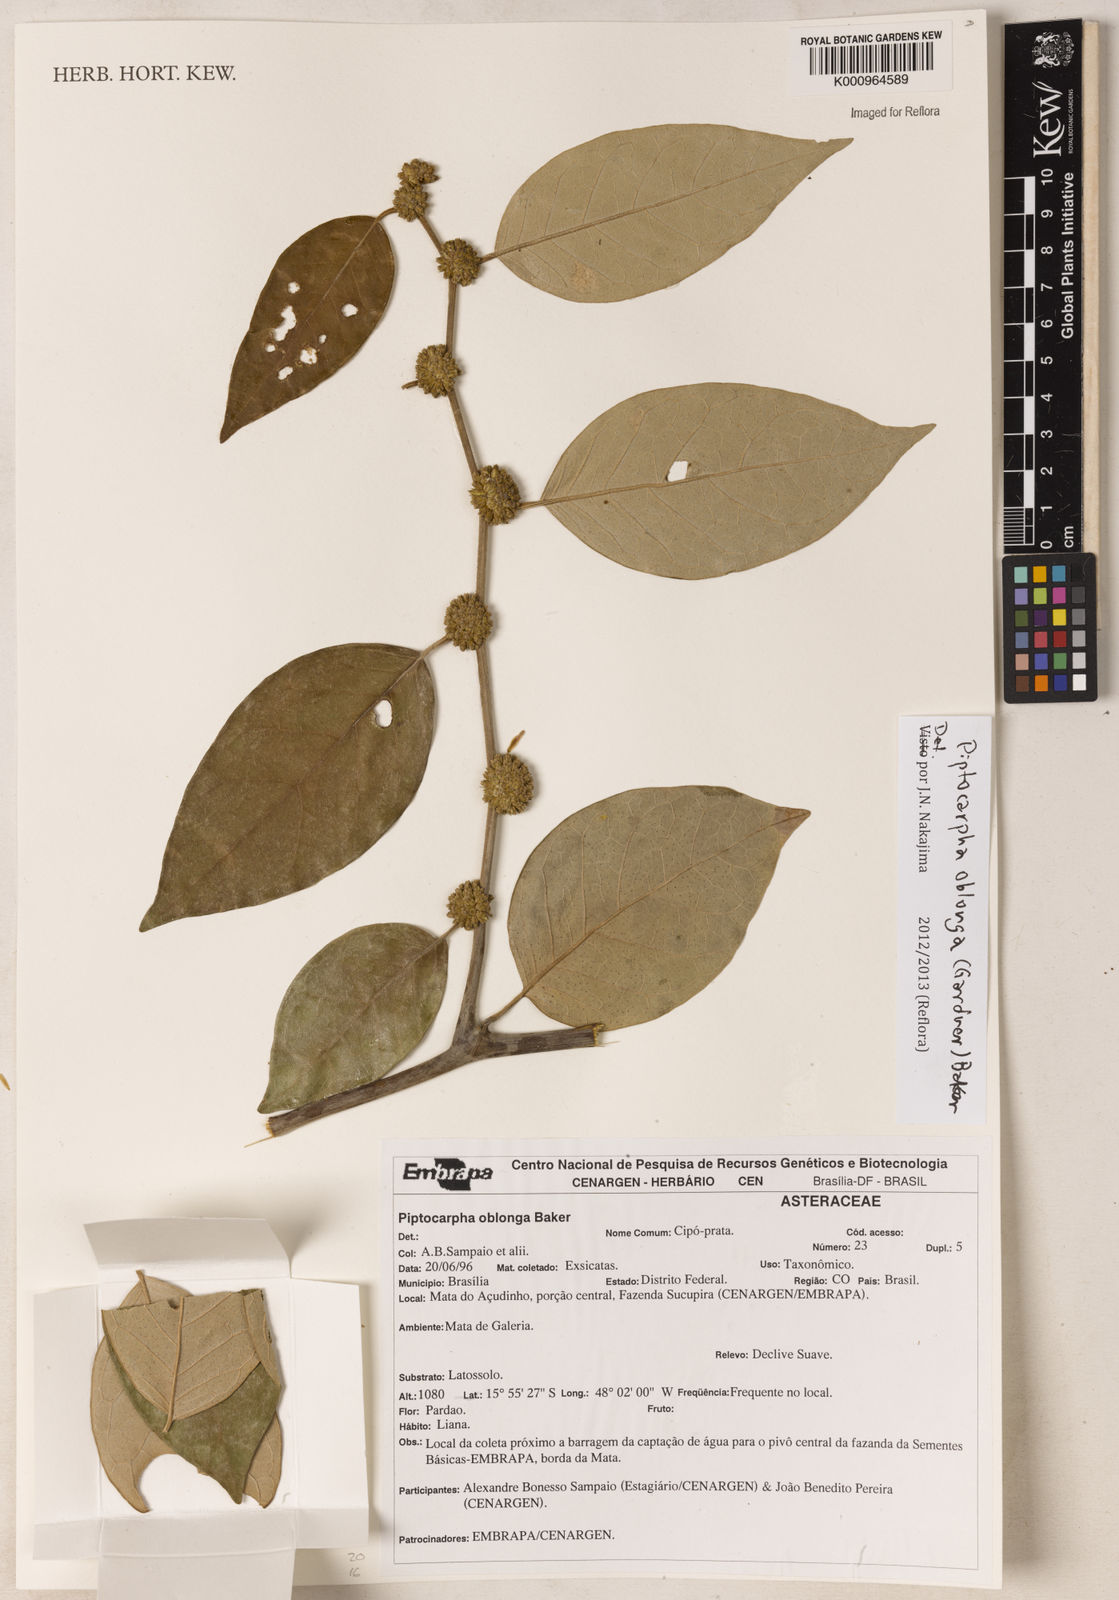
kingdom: Plantae
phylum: Tracheophyta
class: Magnoliopsida
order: Asterales
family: Asteraceae
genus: Piptocarpha
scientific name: Piptocarpha oblonga
